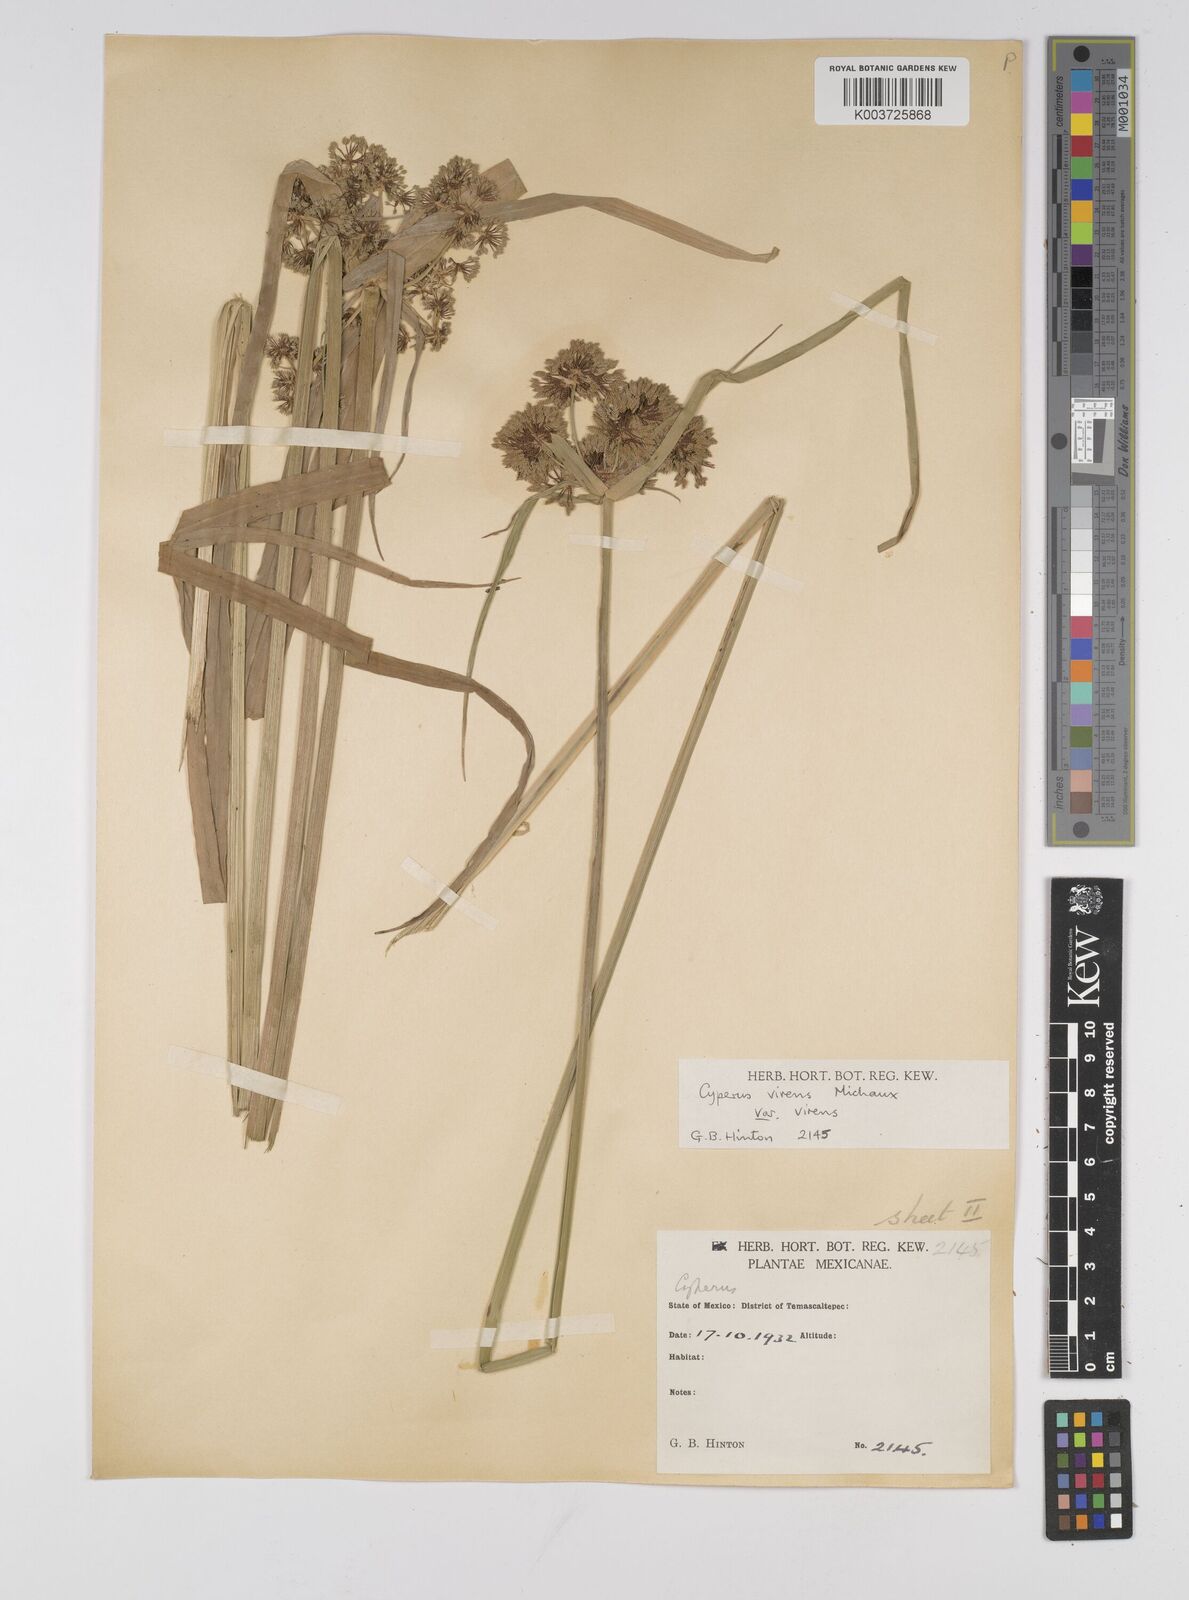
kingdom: Plantae
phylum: Tracheophyta
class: Liliopsida
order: Poales
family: Cyperaceae
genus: Cyperus
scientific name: Cyperus virens
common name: Green flatsedge
